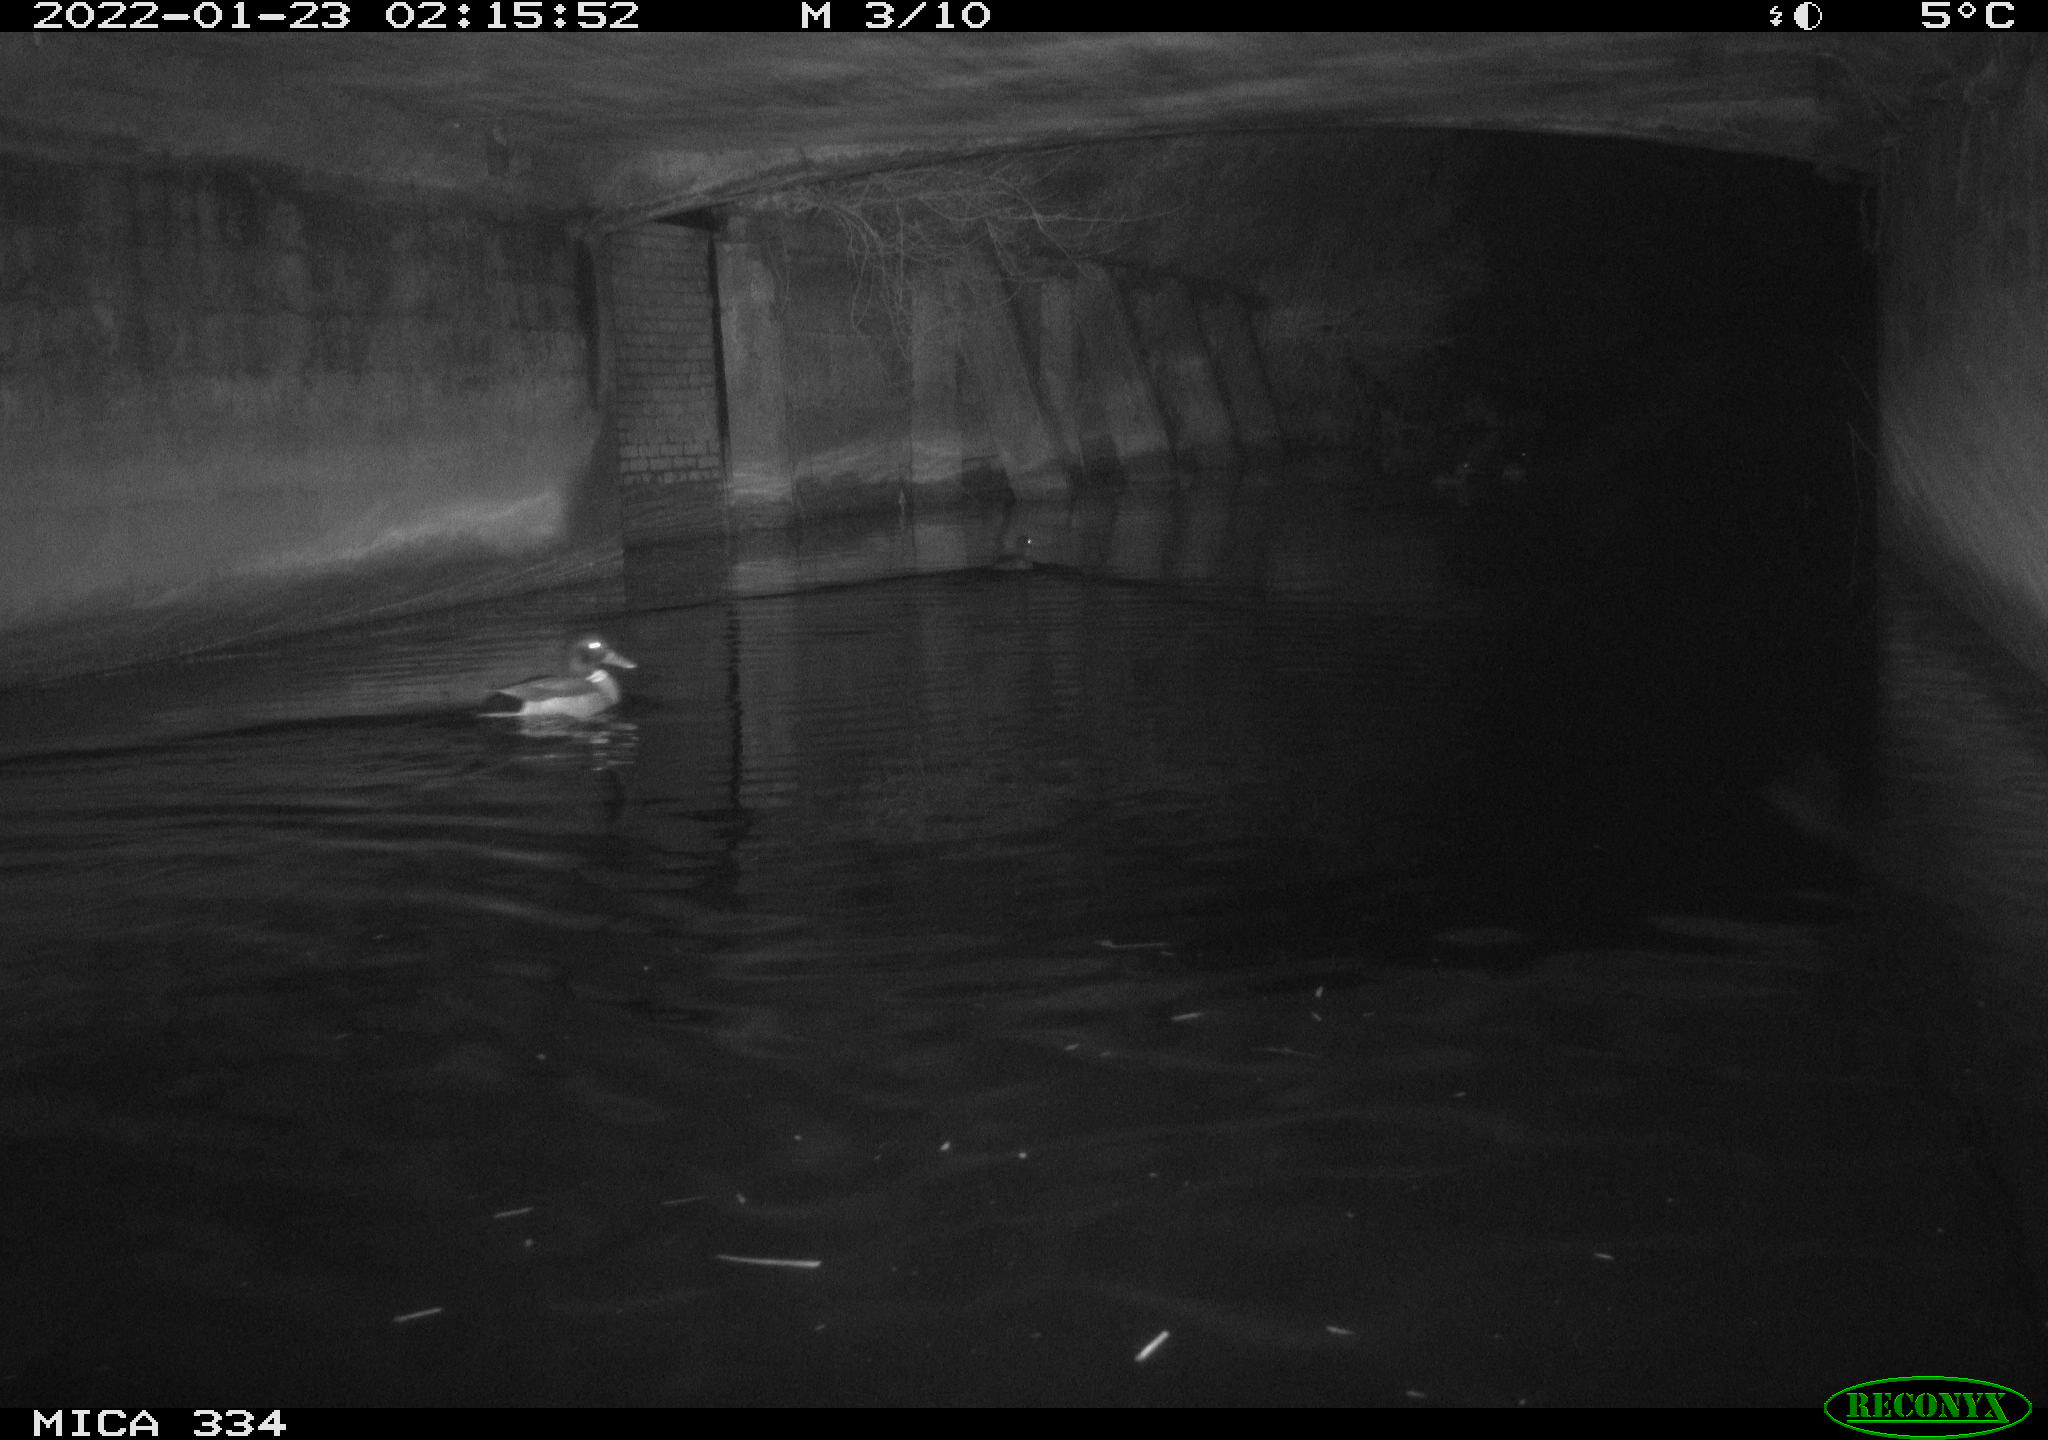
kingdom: Animalia
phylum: Chordata
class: Aves
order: Anseriformes
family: Anatidae
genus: Anas
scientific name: Anas platyrhynchos
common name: Mallard
